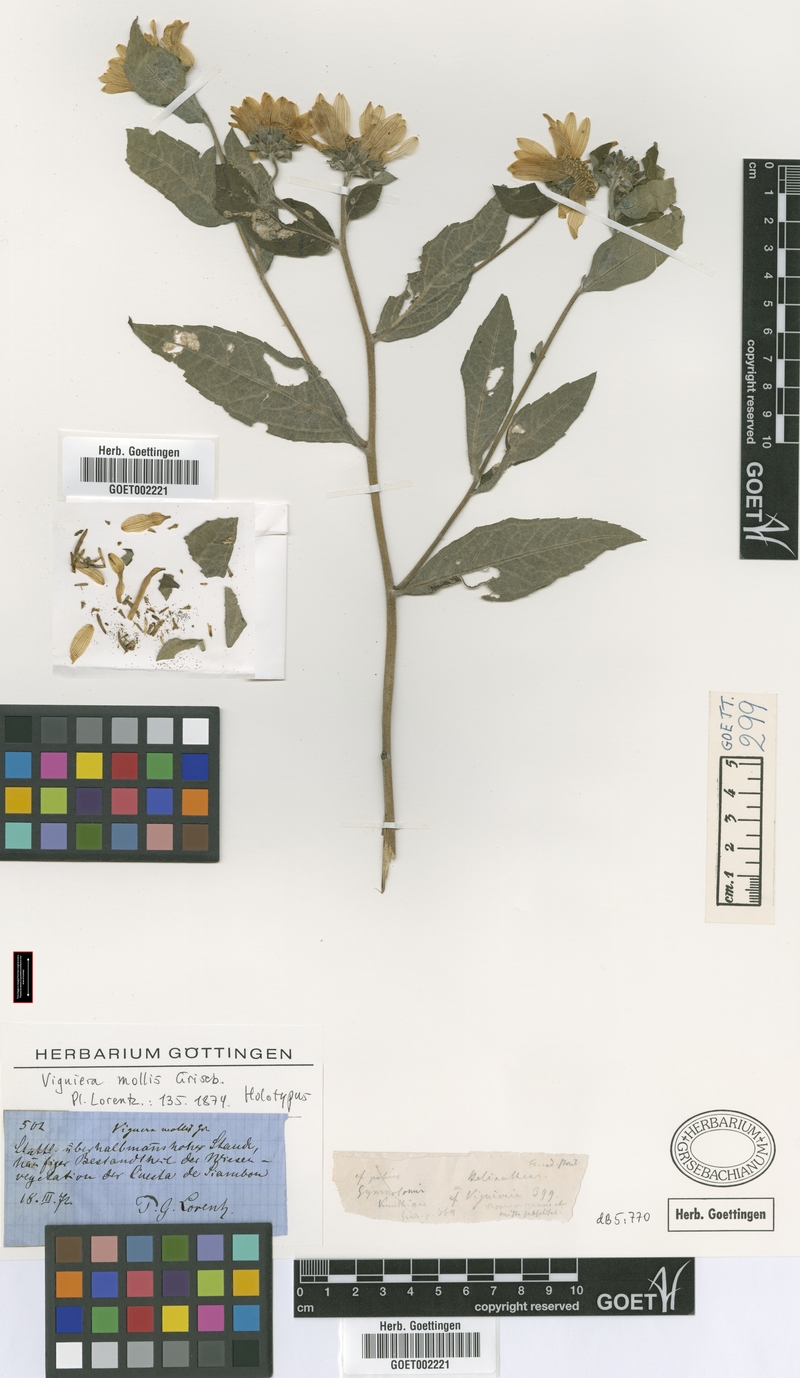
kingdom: Plantae
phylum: Tracheophyta
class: Magnoliopsida
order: Asterales
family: Asteraceae
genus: Aldama
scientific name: Aldama mollis
